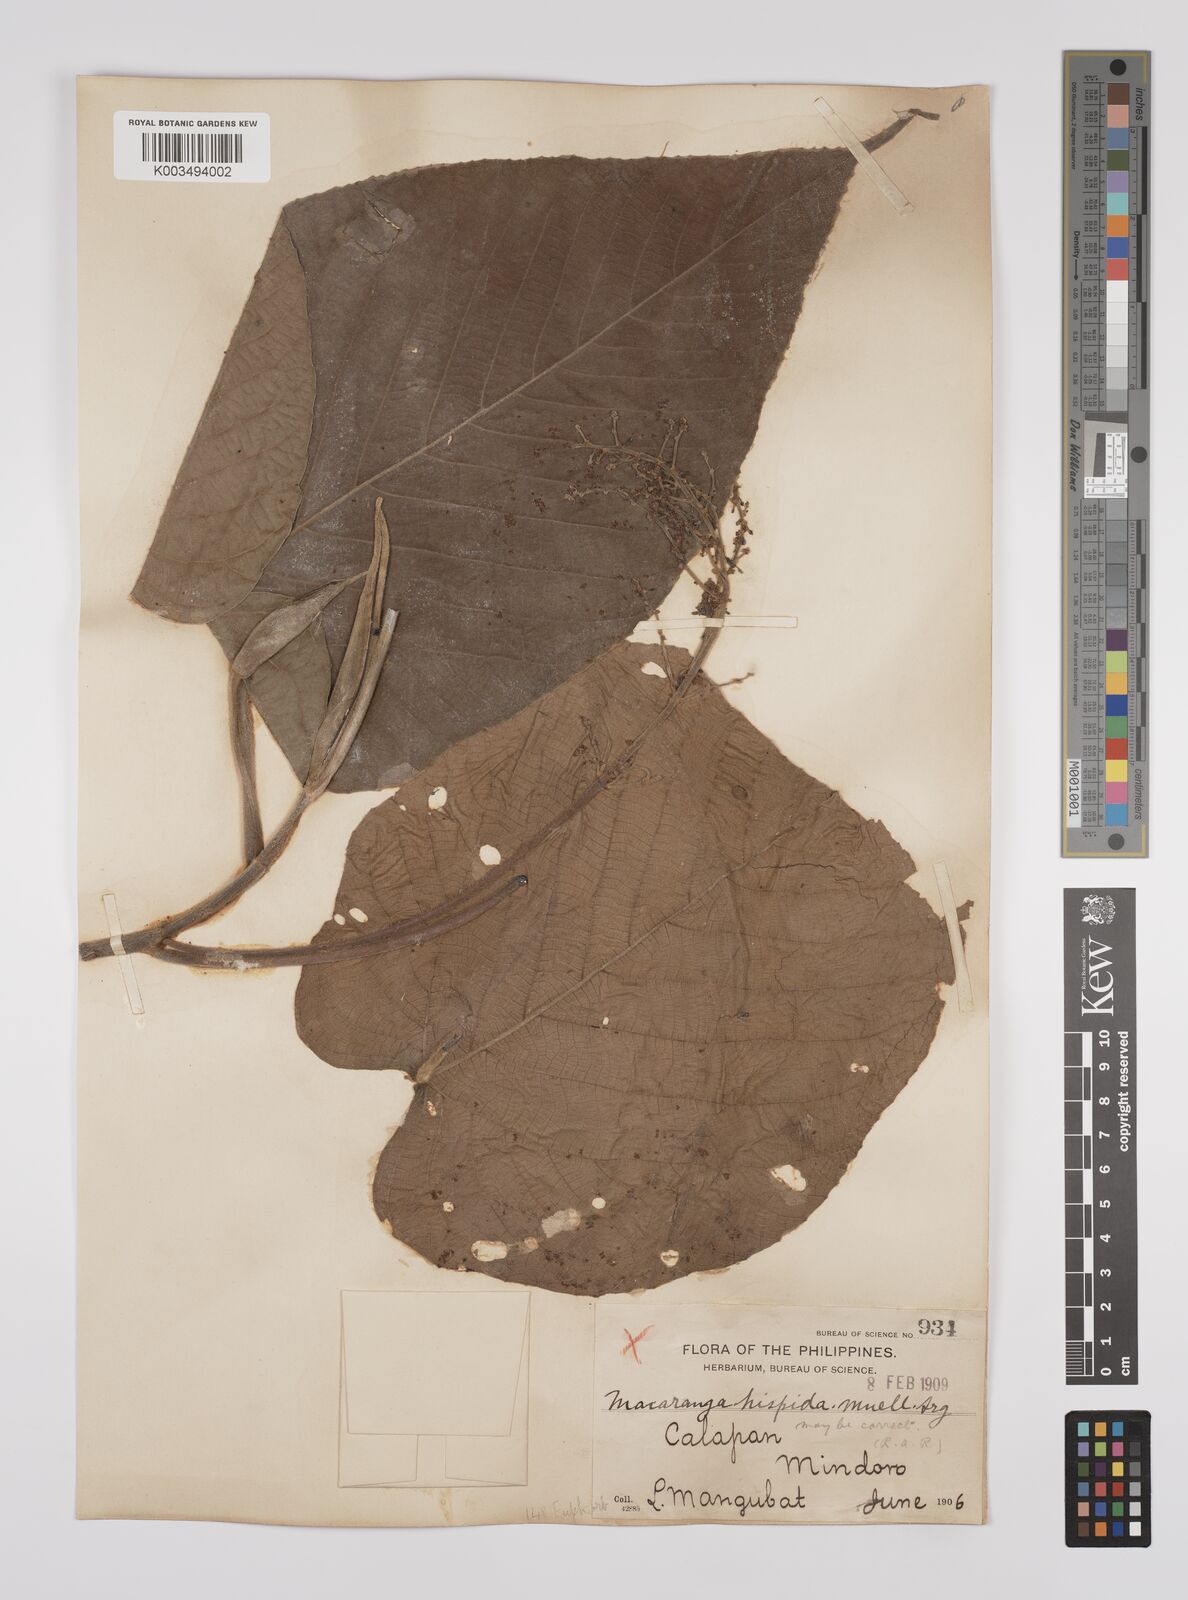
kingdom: Plantae
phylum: Tracheophyta
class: Magnoliopsida
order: Malpighiales
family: Euphorbiaceae
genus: Macaranga
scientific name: Macaranga hispida
